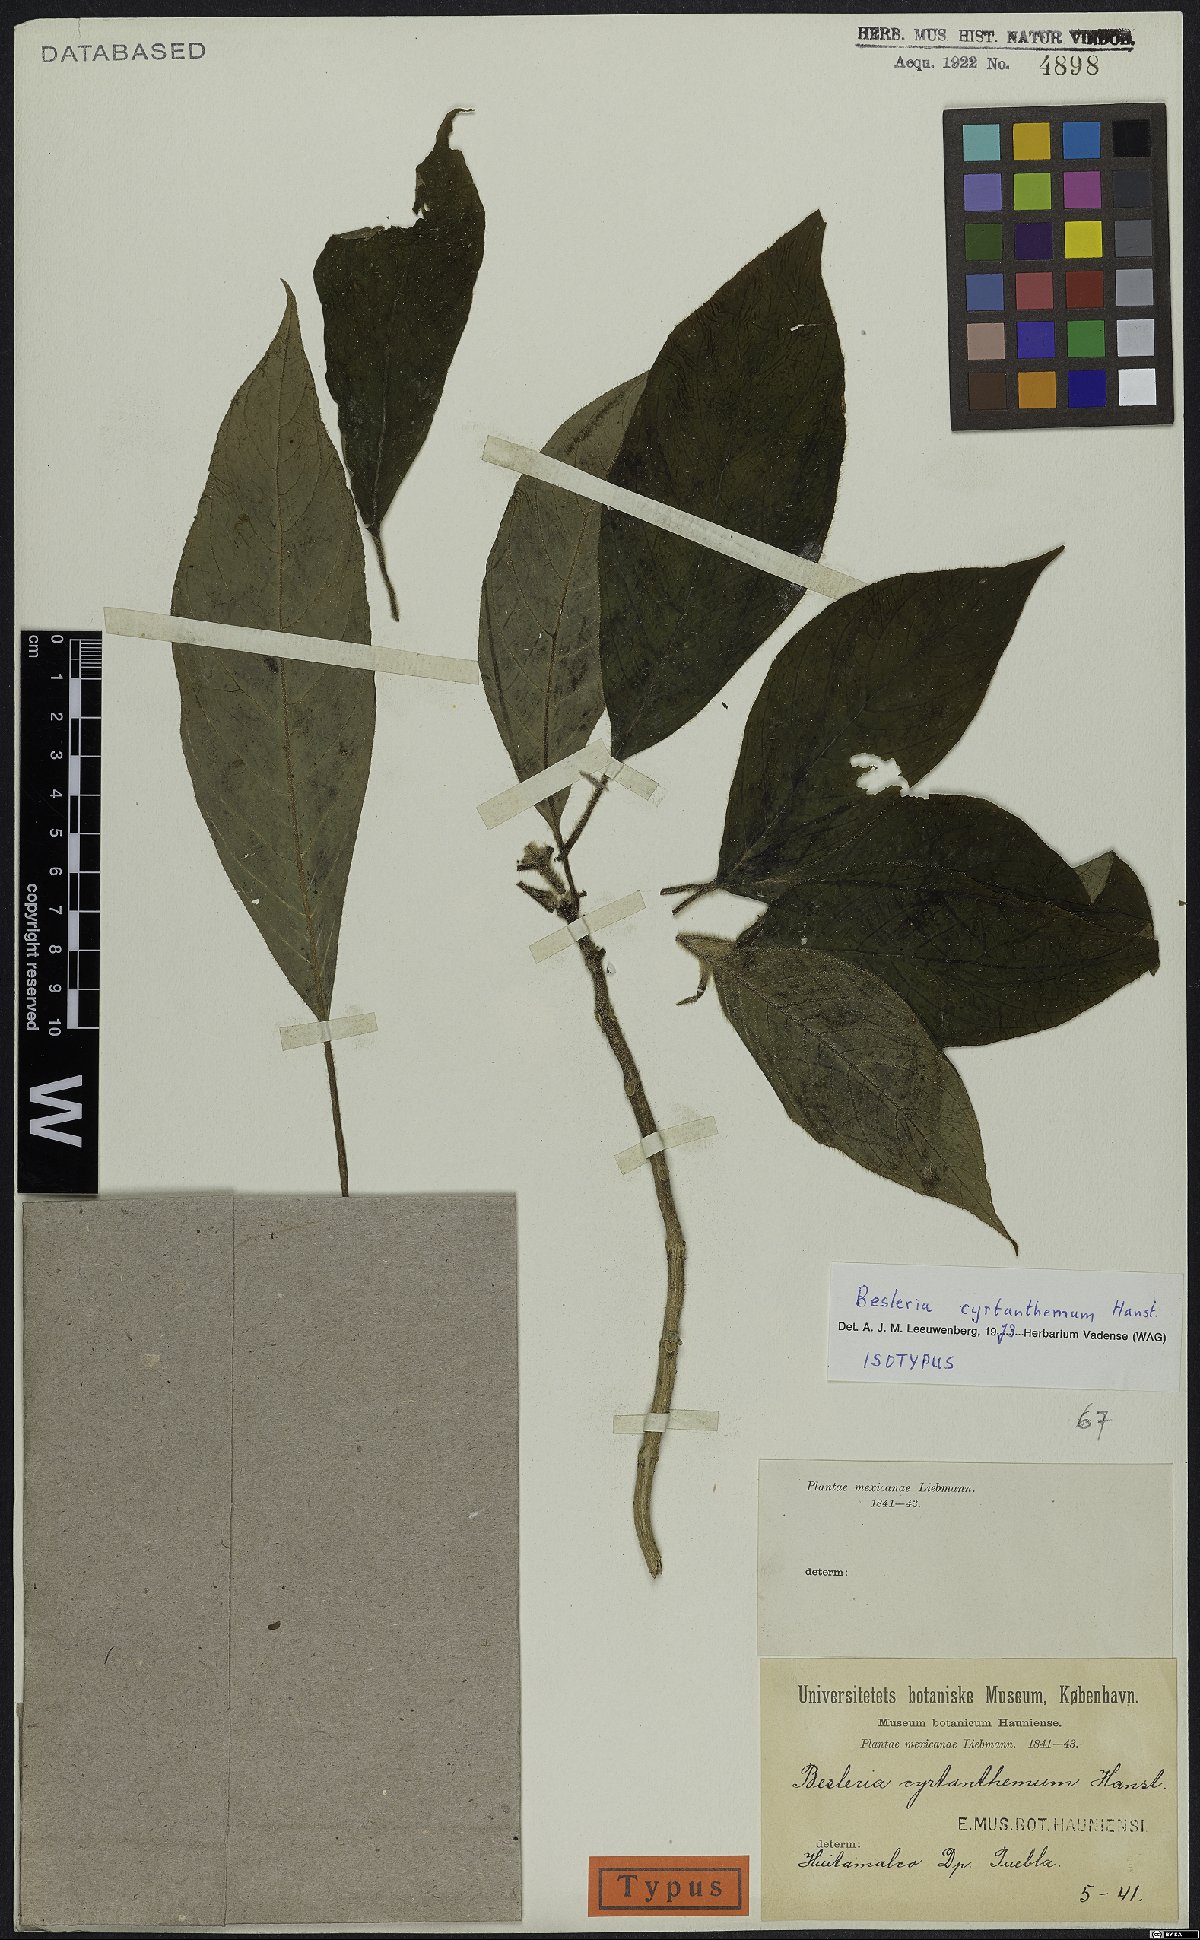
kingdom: Plantae
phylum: Tracheophyta
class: Magnoliopsida
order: Lamiales
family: Gesneriaceae
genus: Besleria
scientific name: Besleria cyrtanthemum
